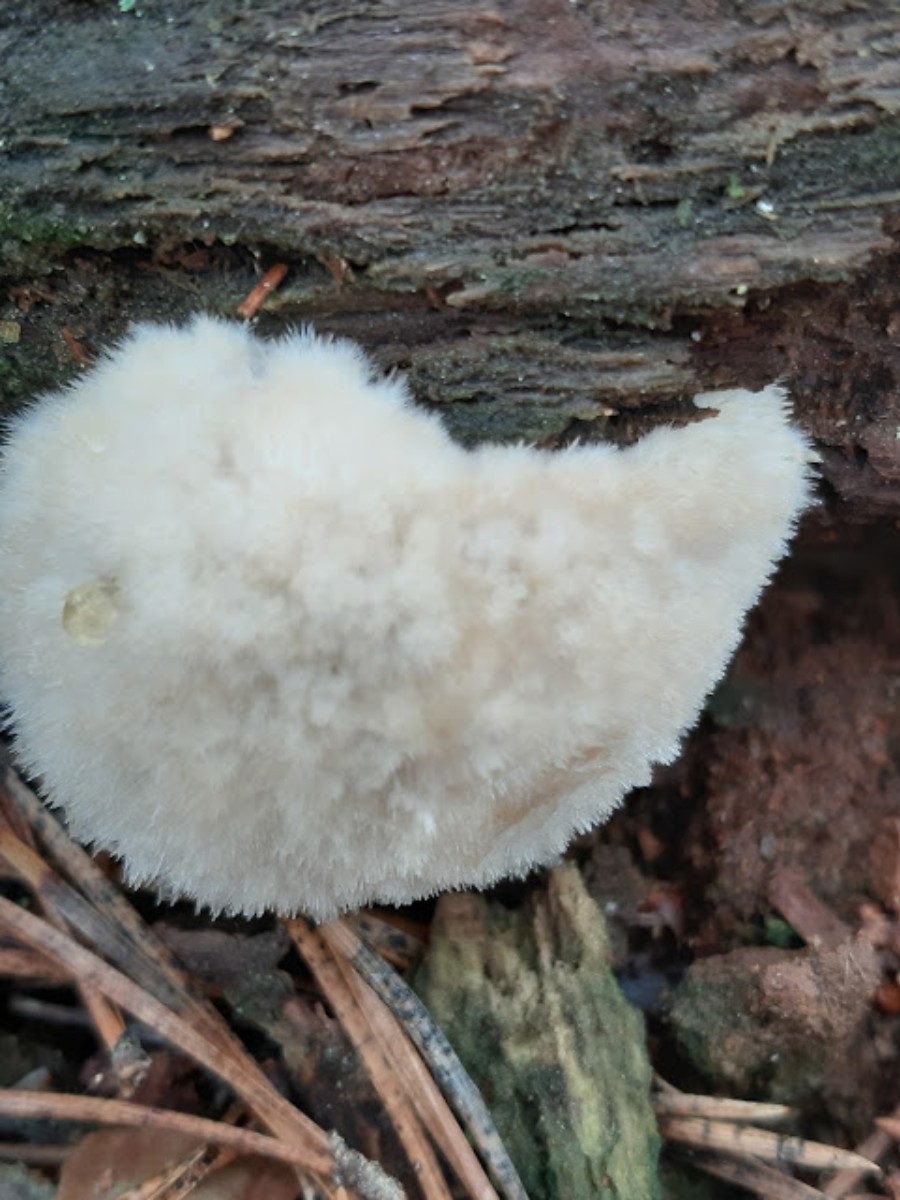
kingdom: Fungi
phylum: Basidiomycota
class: Agaricomycetes
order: Polyporales
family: Dacryobolaceae
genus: Postia
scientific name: Postia ptychogaster
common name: støvende kødporesvamp
